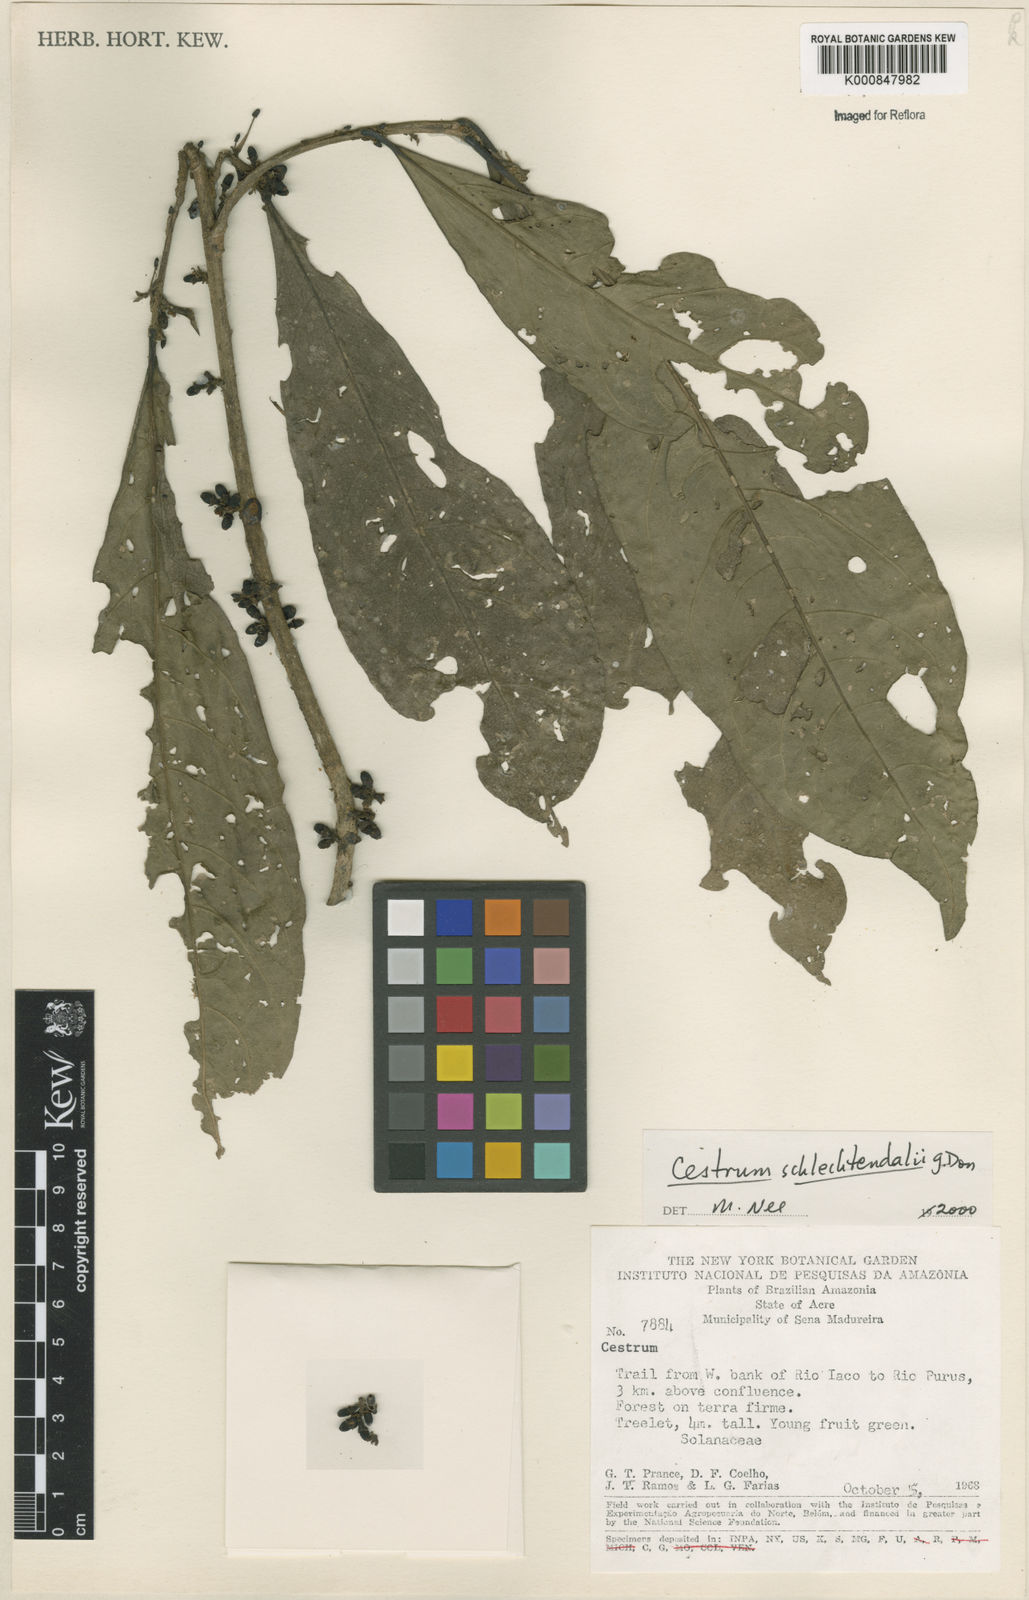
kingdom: Plantae
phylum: Tracheophyta
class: Magnoliopsida
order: Solanales
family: Solanaceae
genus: Cestrum
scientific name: Cestrum schlechtendalii
